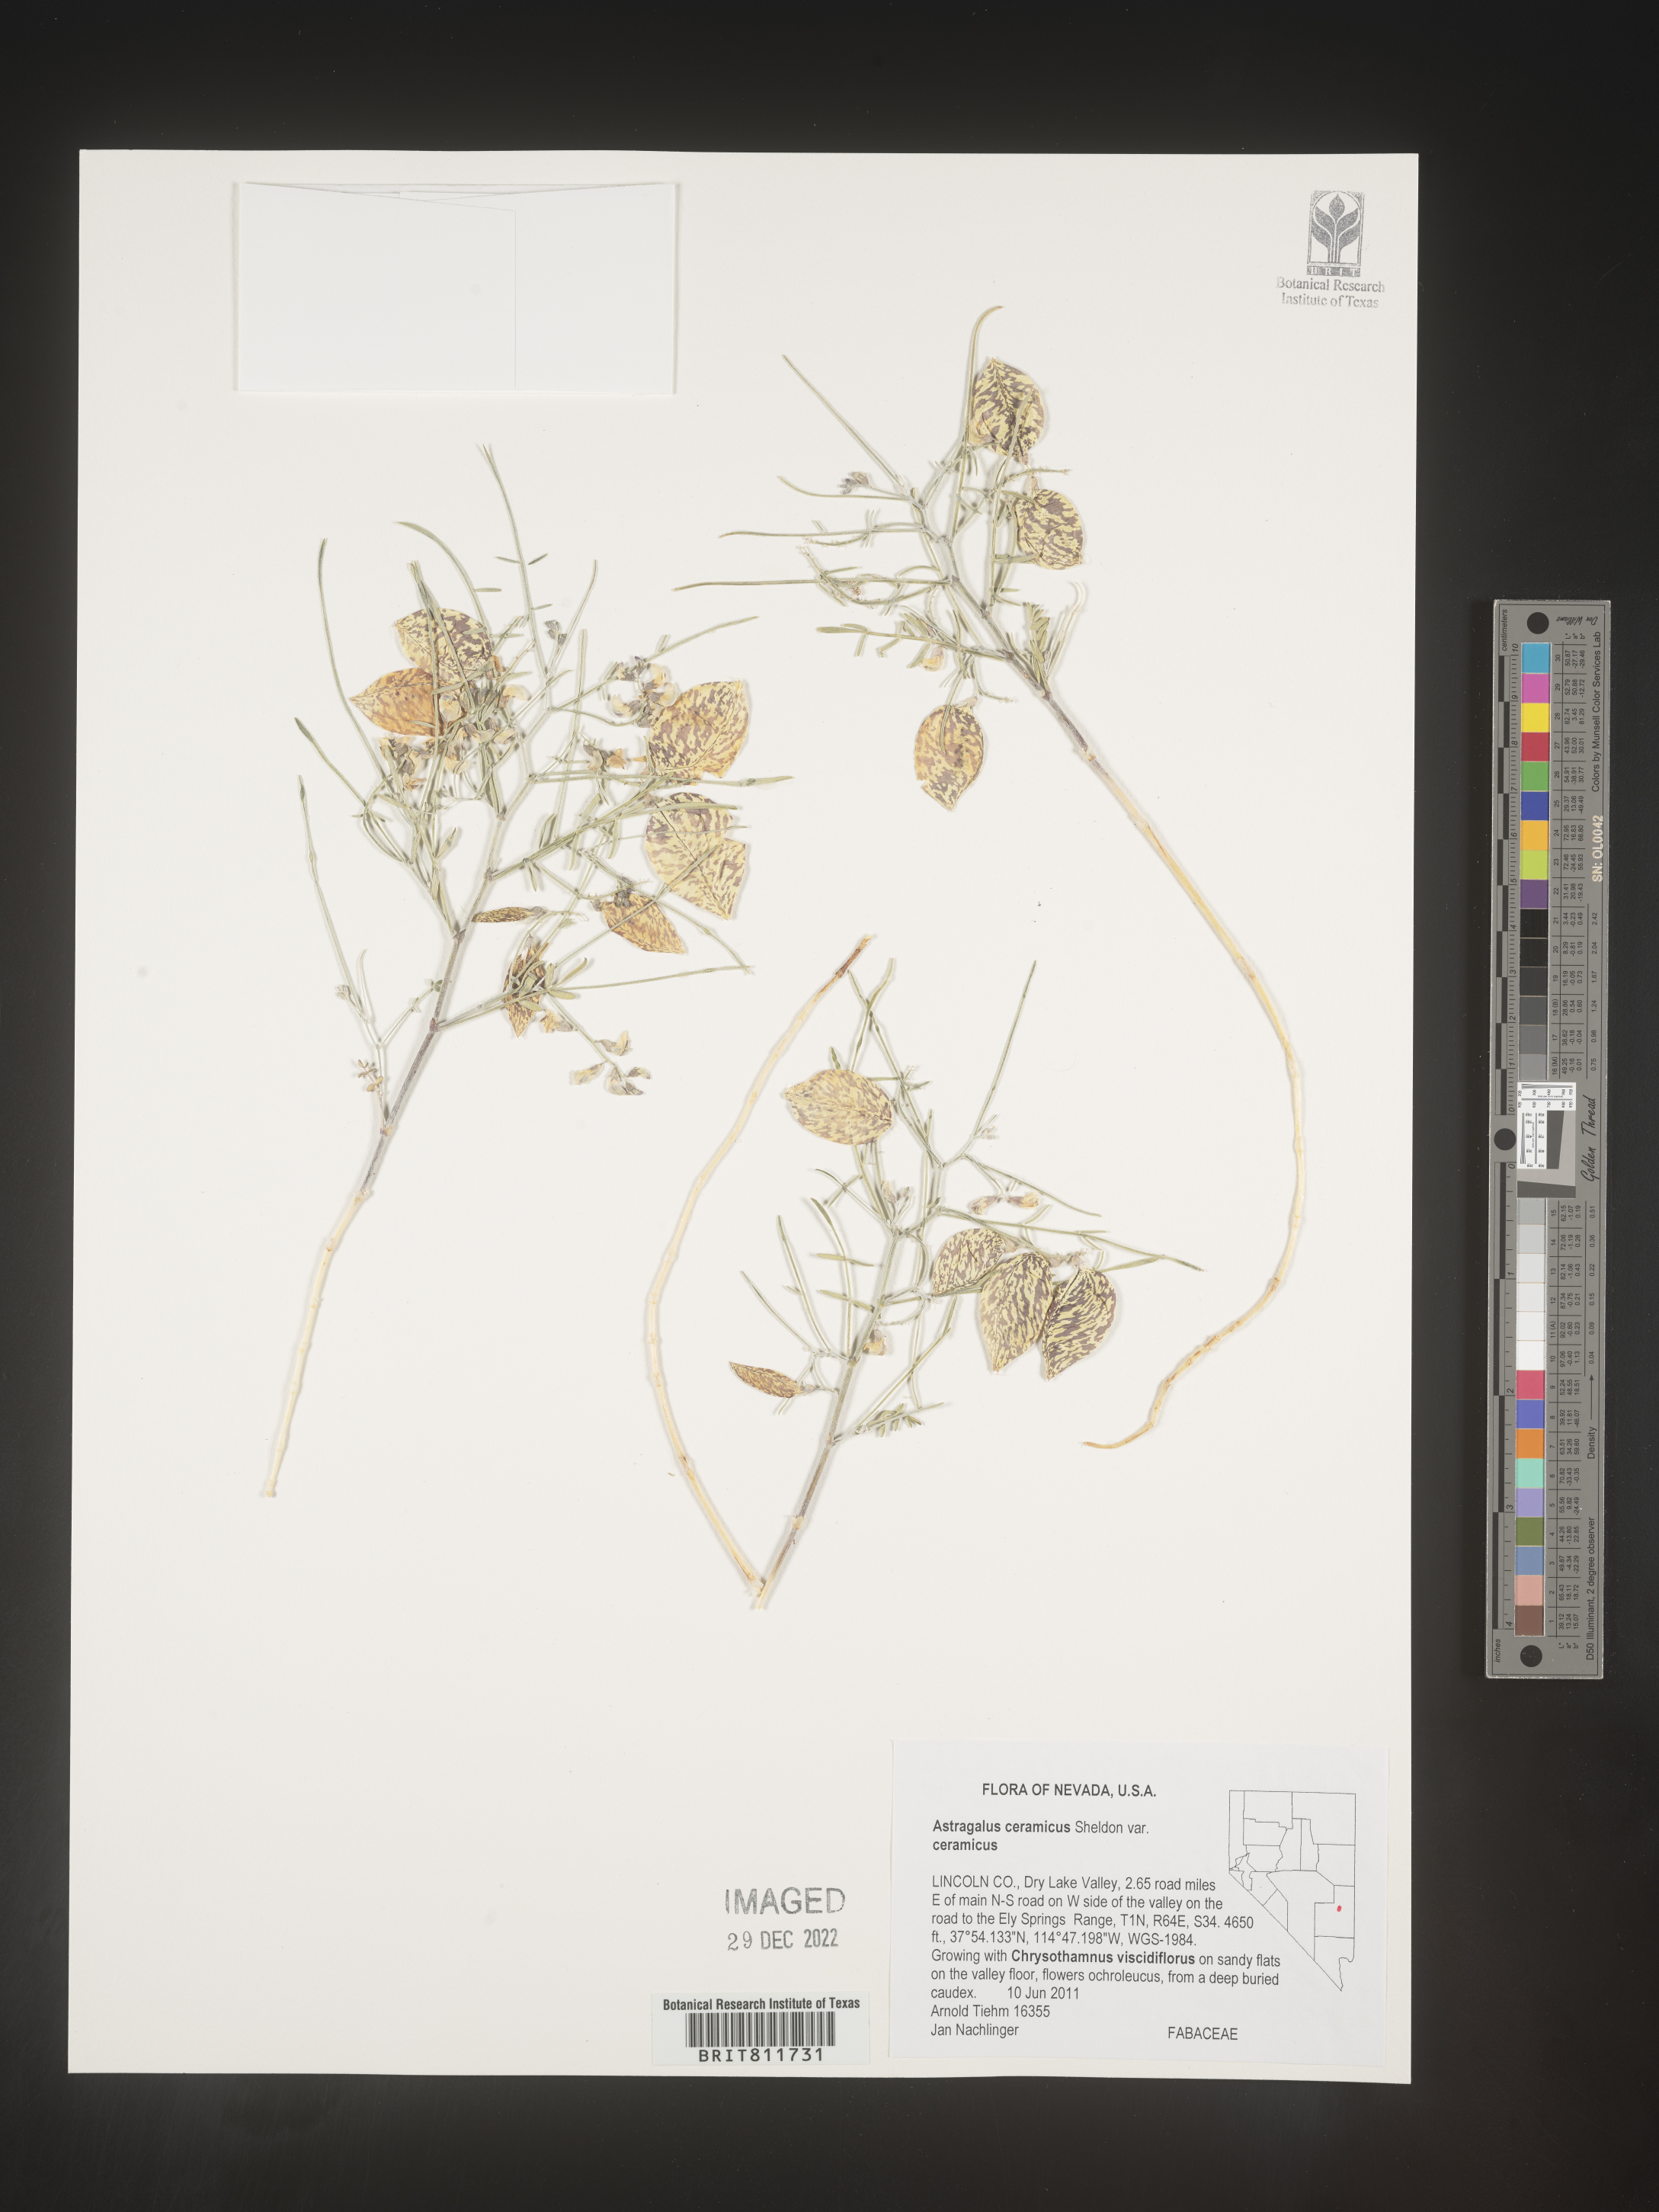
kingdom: Plantae
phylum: Tracheophyta
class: Magnoliopsida
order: Fabales
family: Fabaceae
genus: Astragalus
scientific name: Astragalus
